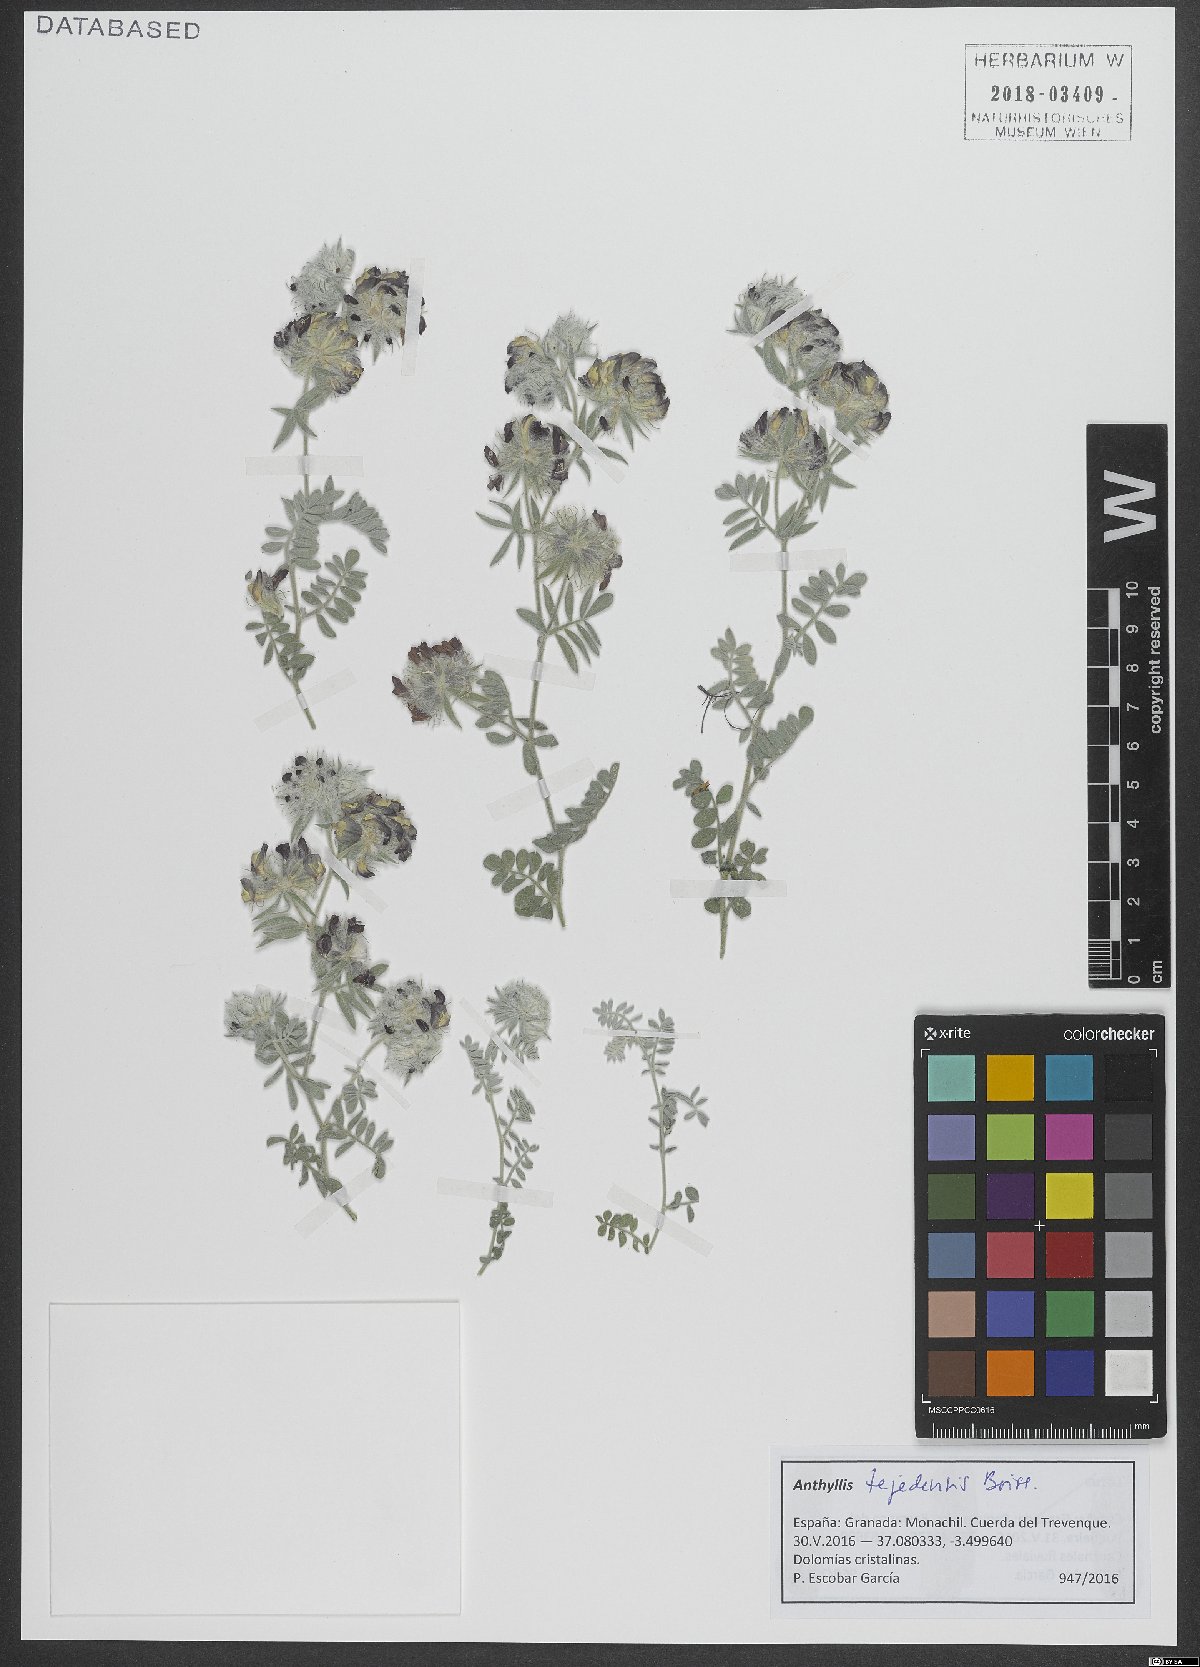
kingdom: Plantae
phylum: Tracheophyta
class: Magnoliopsida
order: Fabales
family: Fabaceae
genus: Anthyllis
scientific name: Anthyllis tejedensis
